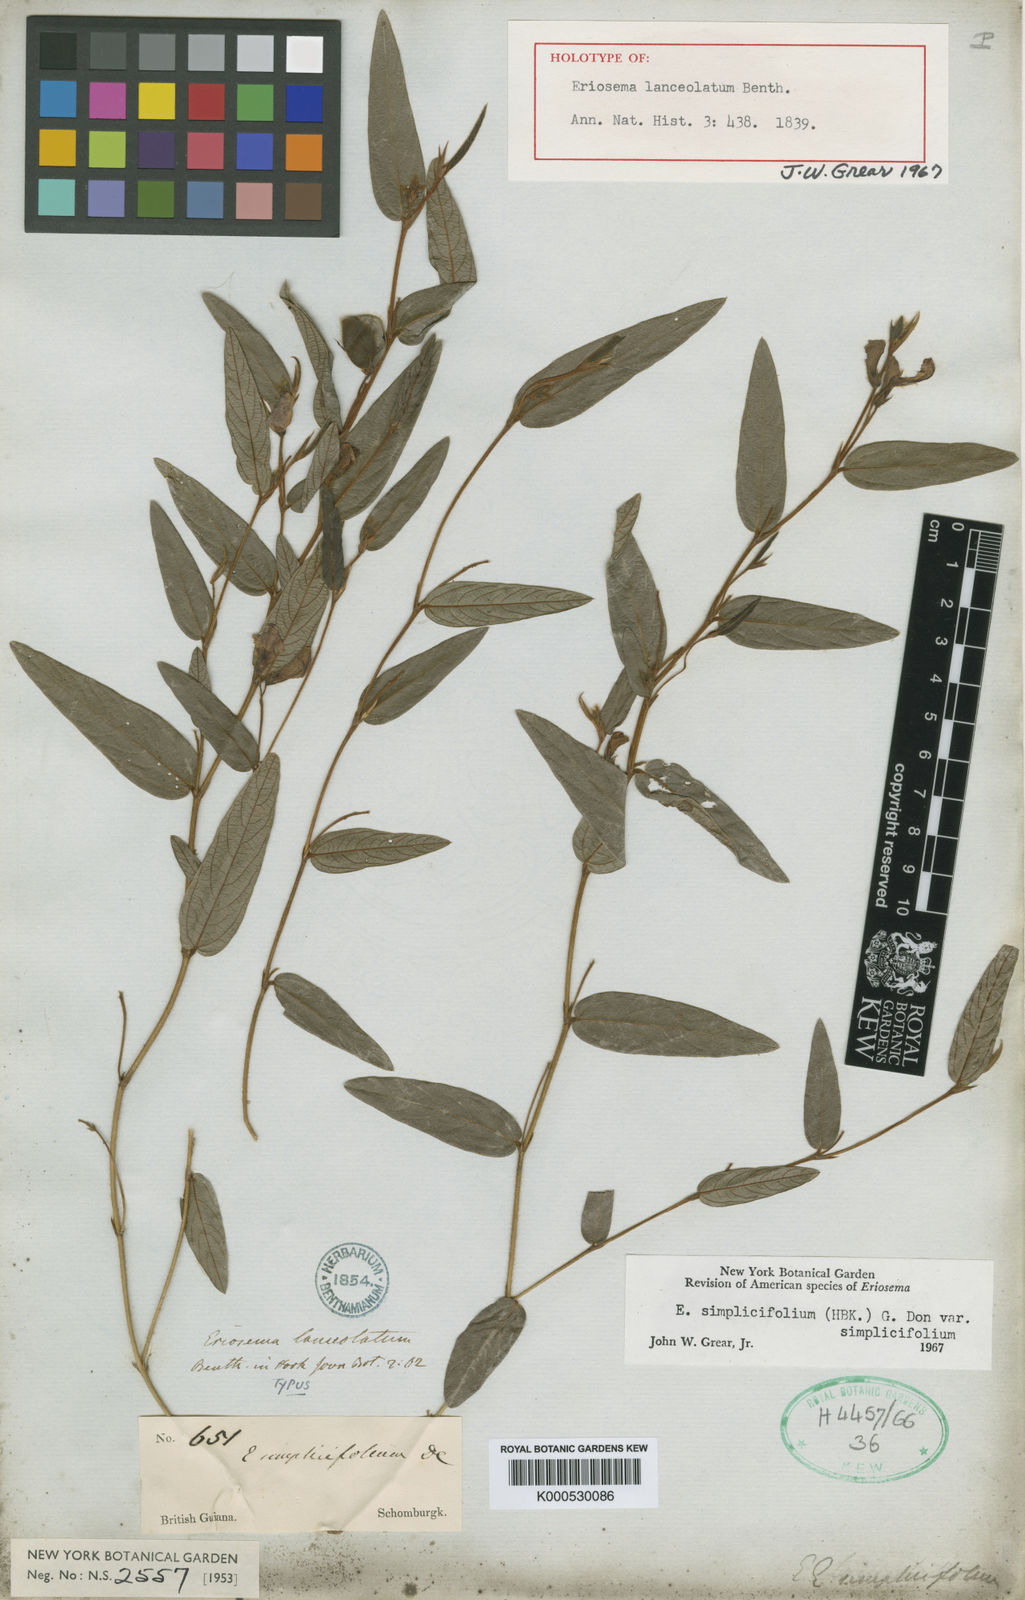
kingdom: Plantae
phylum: Tracheophyta
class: Magnoliopsida
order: Fabales
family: Fabaceae
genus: Eriosema
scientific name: Eriosema simplicifolium
